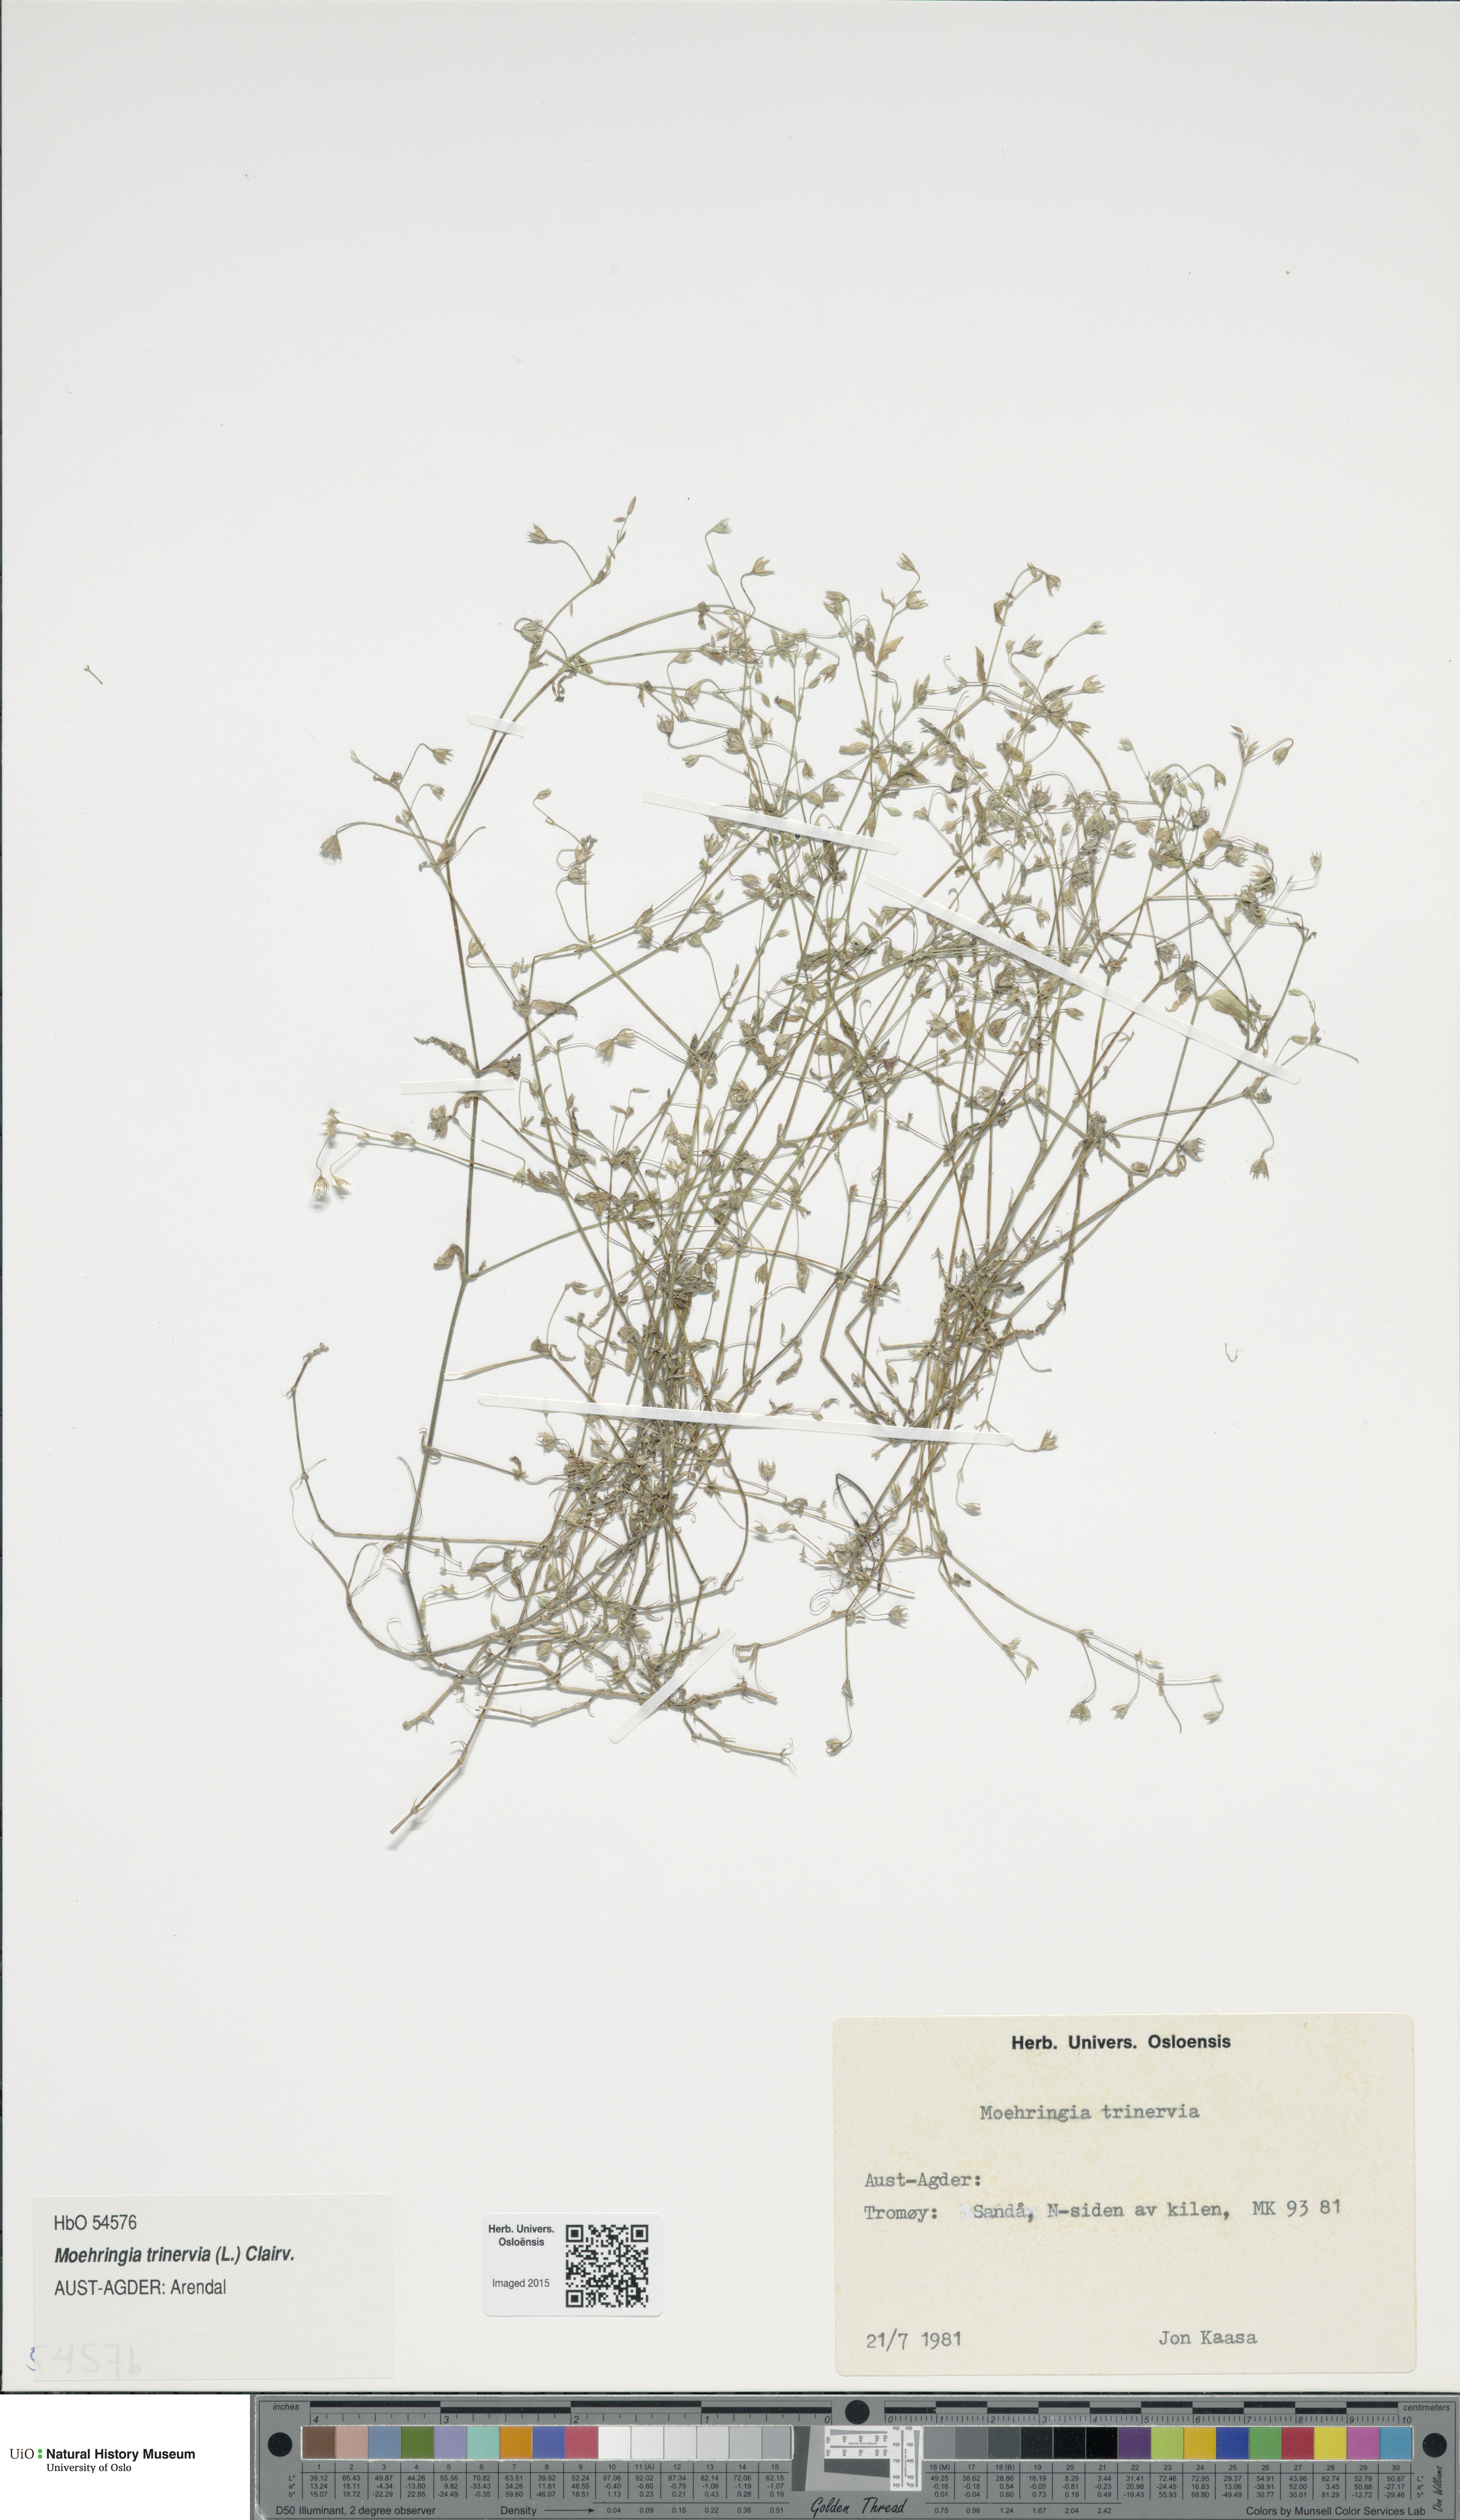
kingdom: Plantae
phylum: Tracheophyta
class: Magnoliopsida
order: Caryophyllales
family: Caryophyllaceae
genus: Moehringia
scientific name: Moehringia trinervia
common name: Three-nerved sandwort
